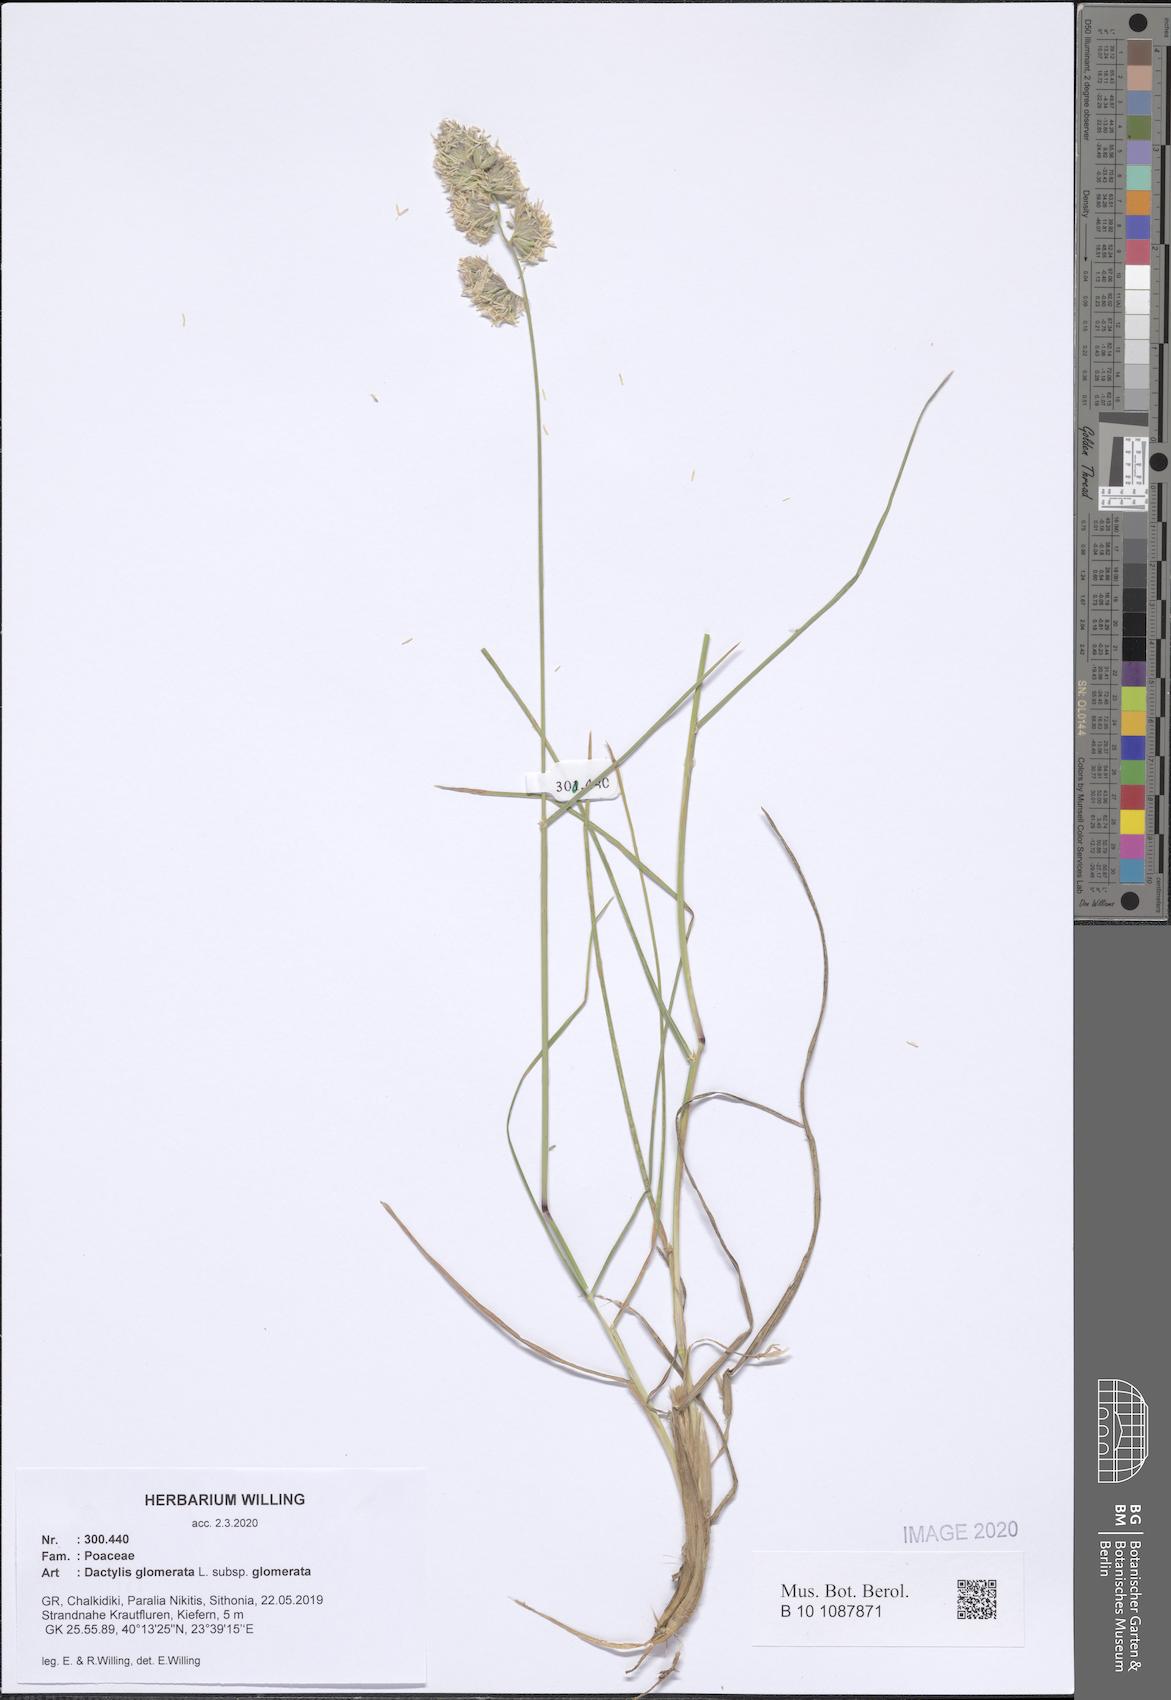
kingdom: Plantae
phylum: Tracheophyta
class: Liliopsida
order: Poales
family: Poaceae
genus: Dactylis
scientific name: Dactylis glomerata
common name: Orchardgrass
